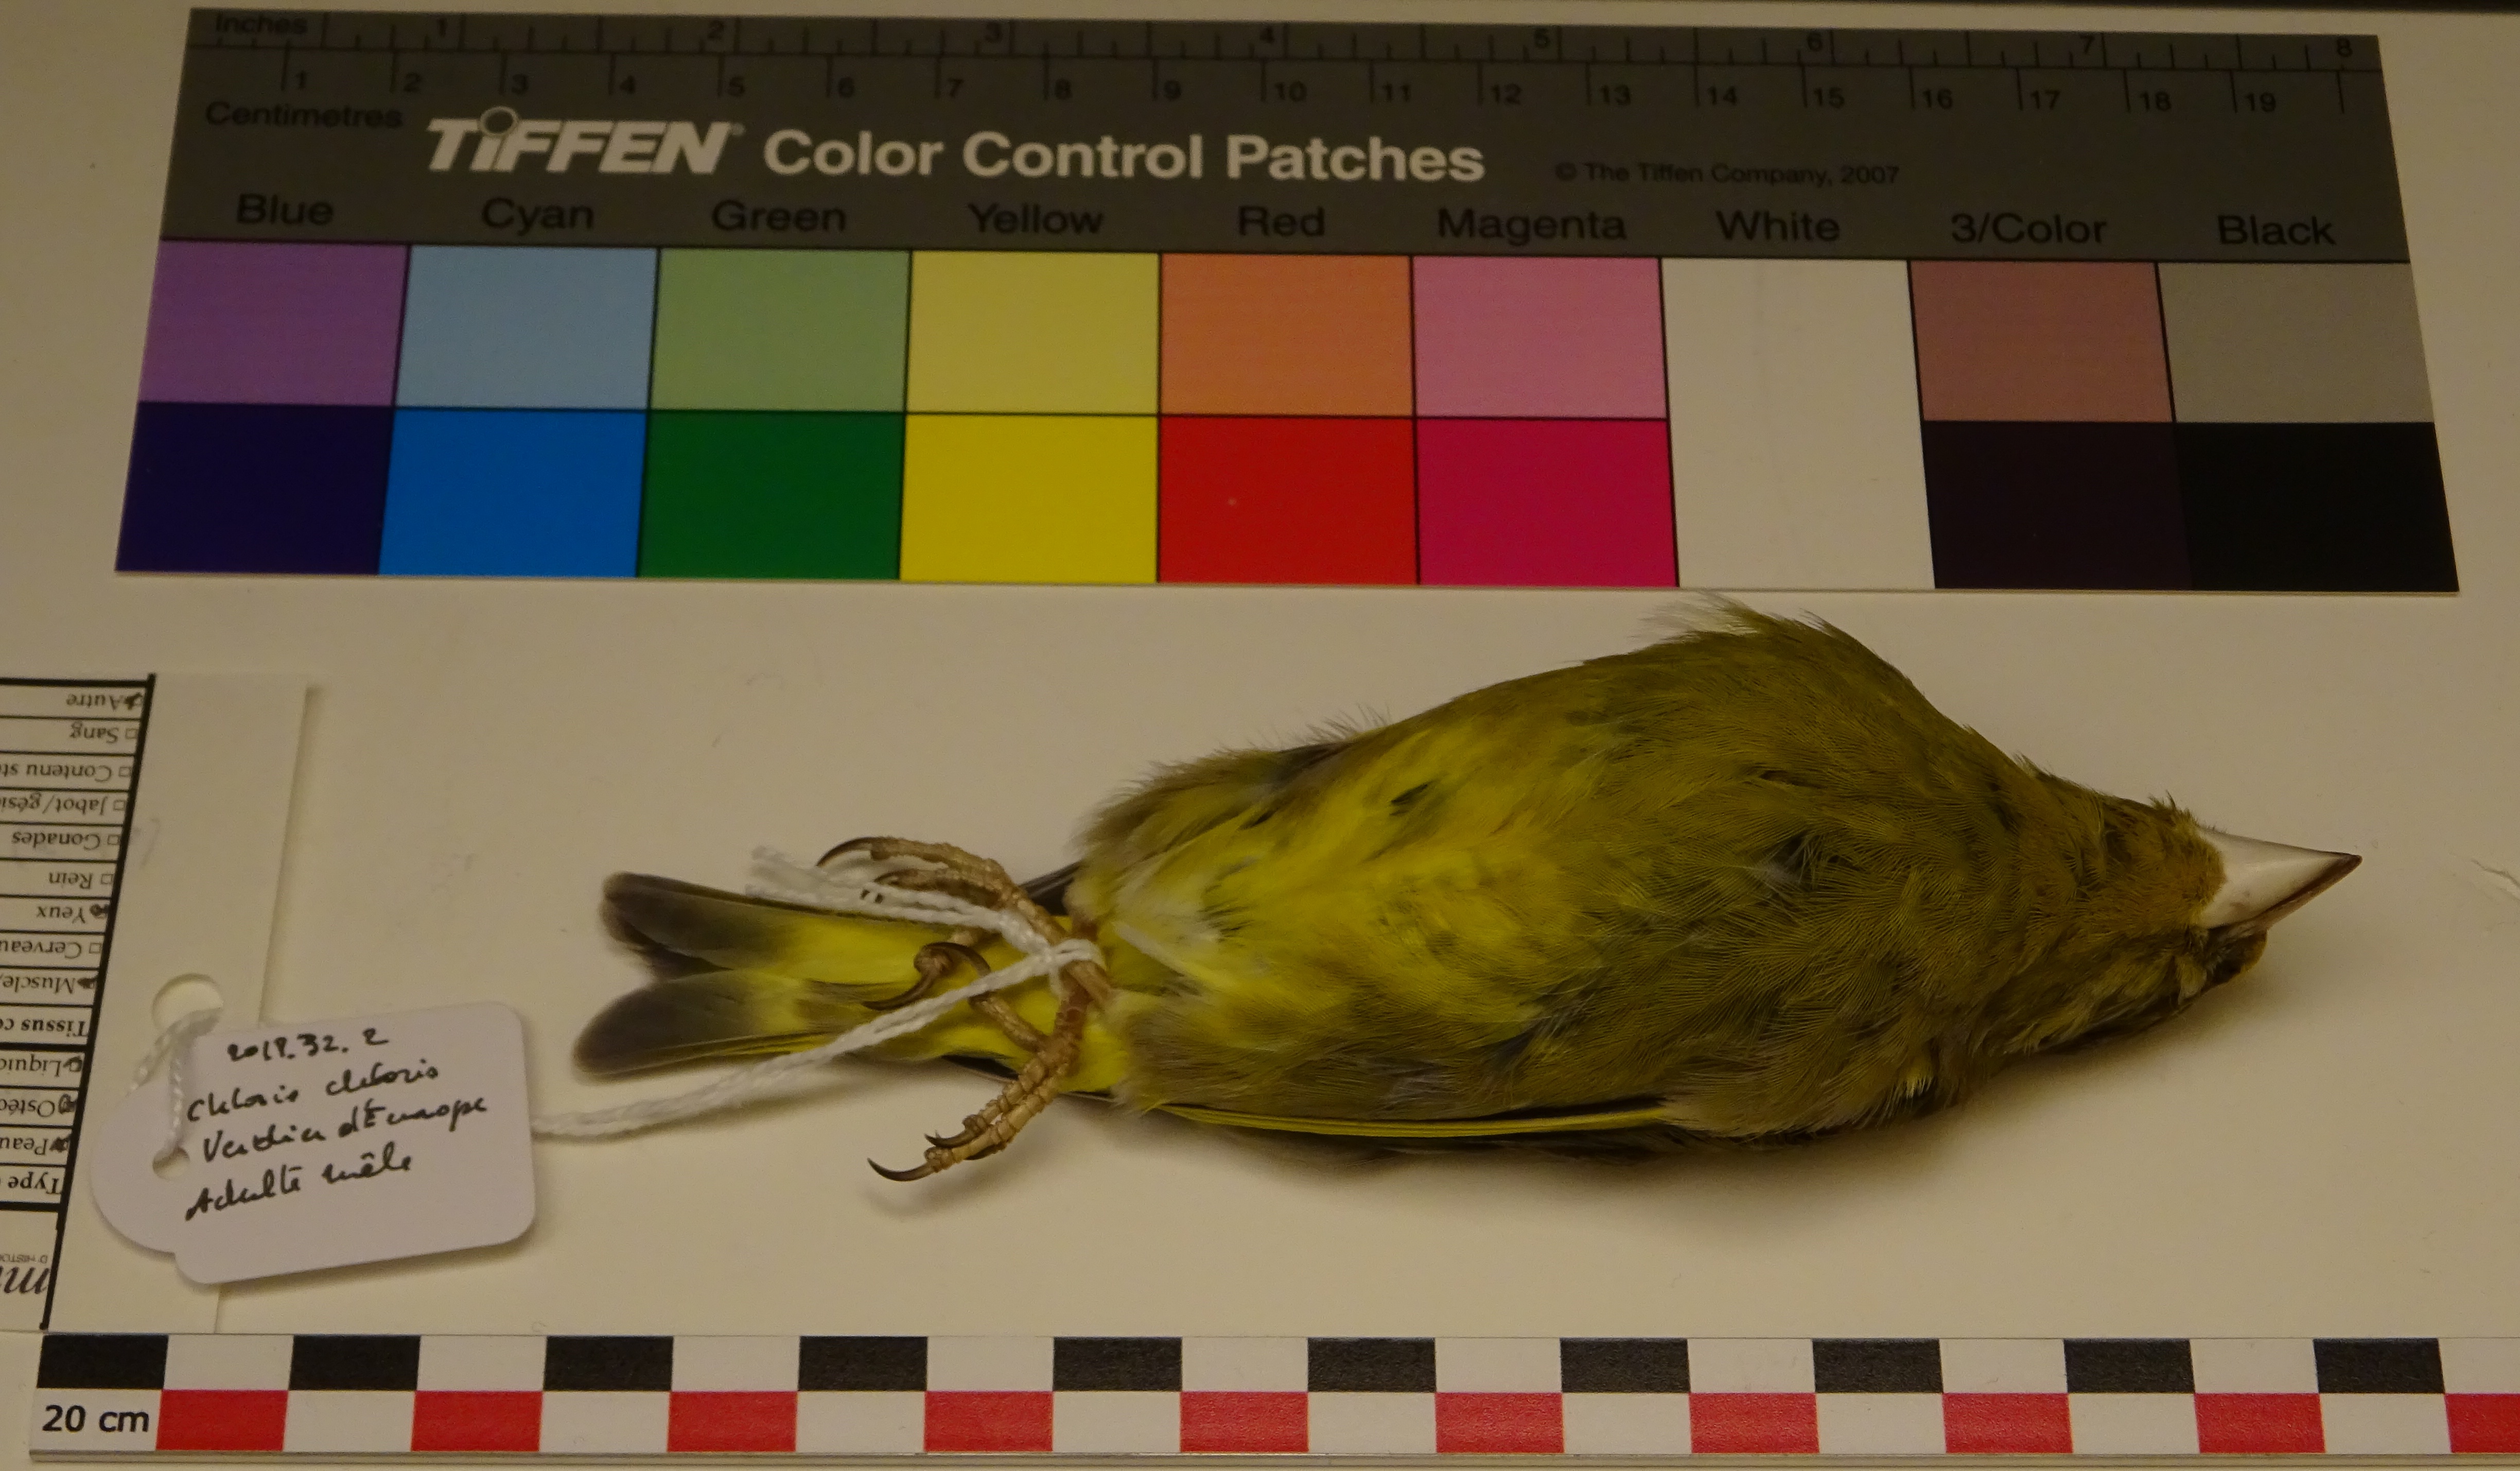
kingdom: Plantae
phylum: Tracheophyta
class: Liliopsida
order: Poales
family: Poaceae
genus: Chloris
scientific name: Chloris chloris
